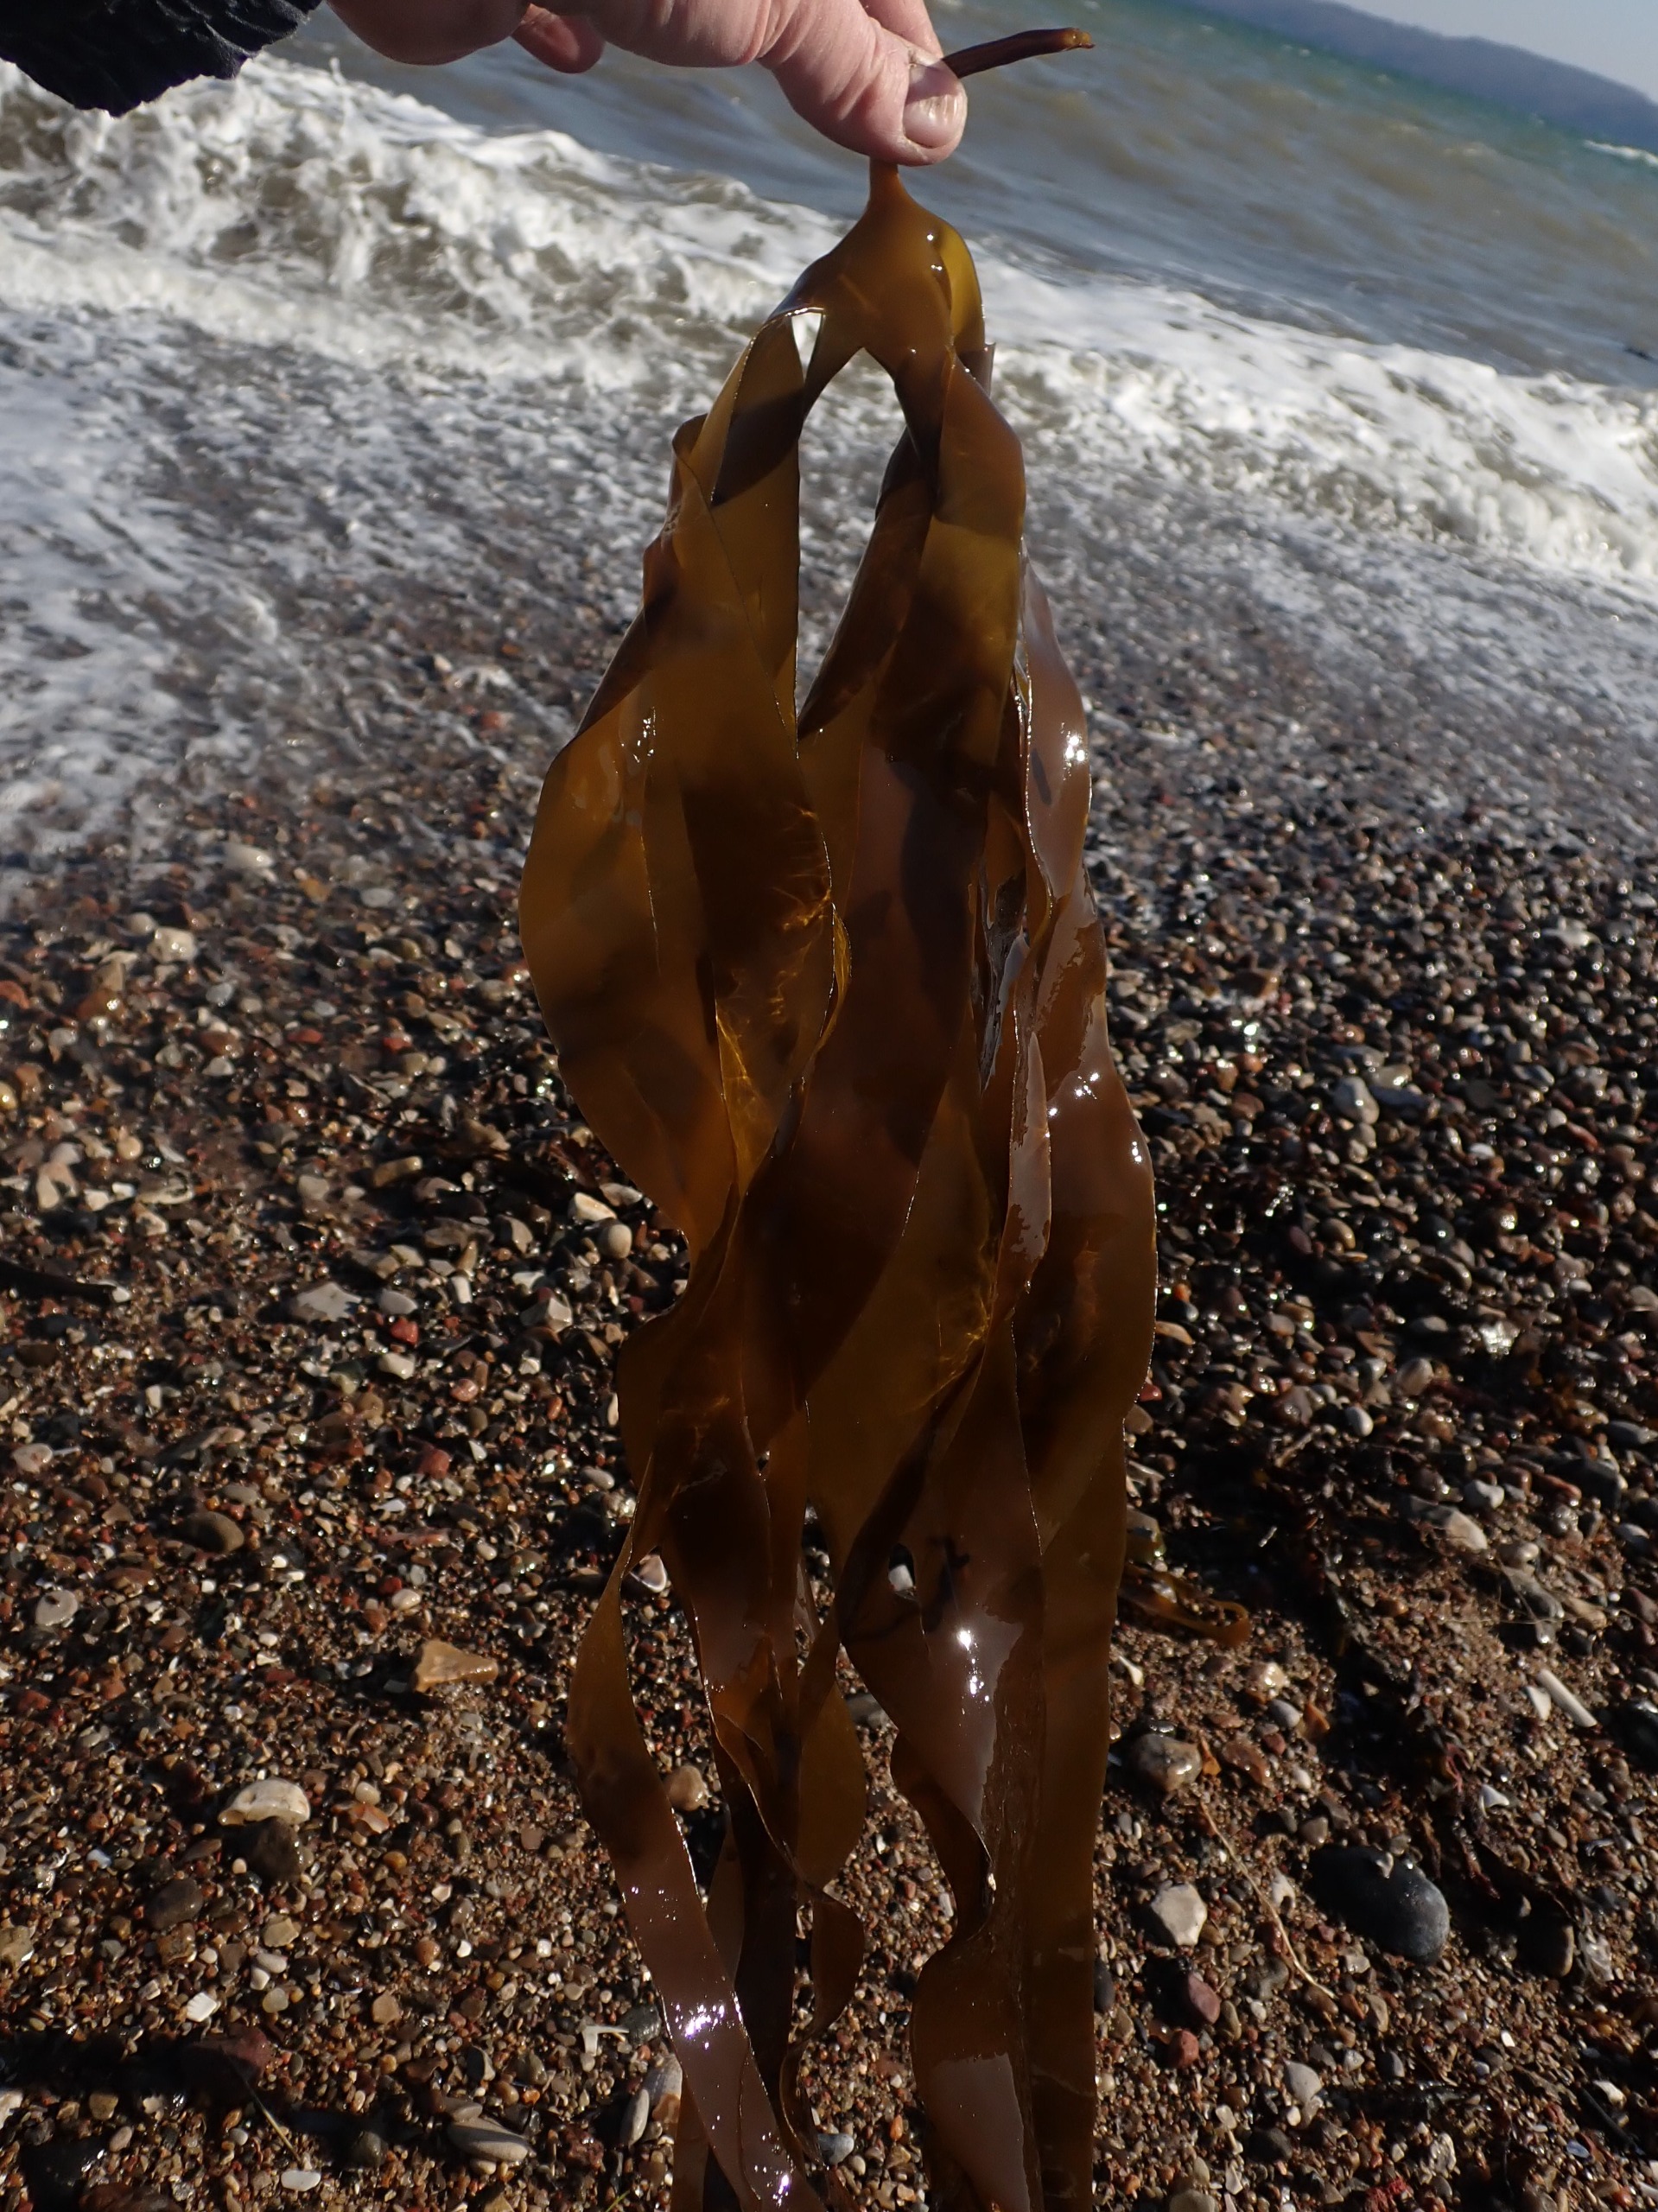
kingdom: Chromista
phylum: Ochrophyta
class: Phaeophyceae
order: Laminariales
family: Laminariaceae
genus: Laminaria
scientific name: Laminaria digitata
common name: Fingertang
